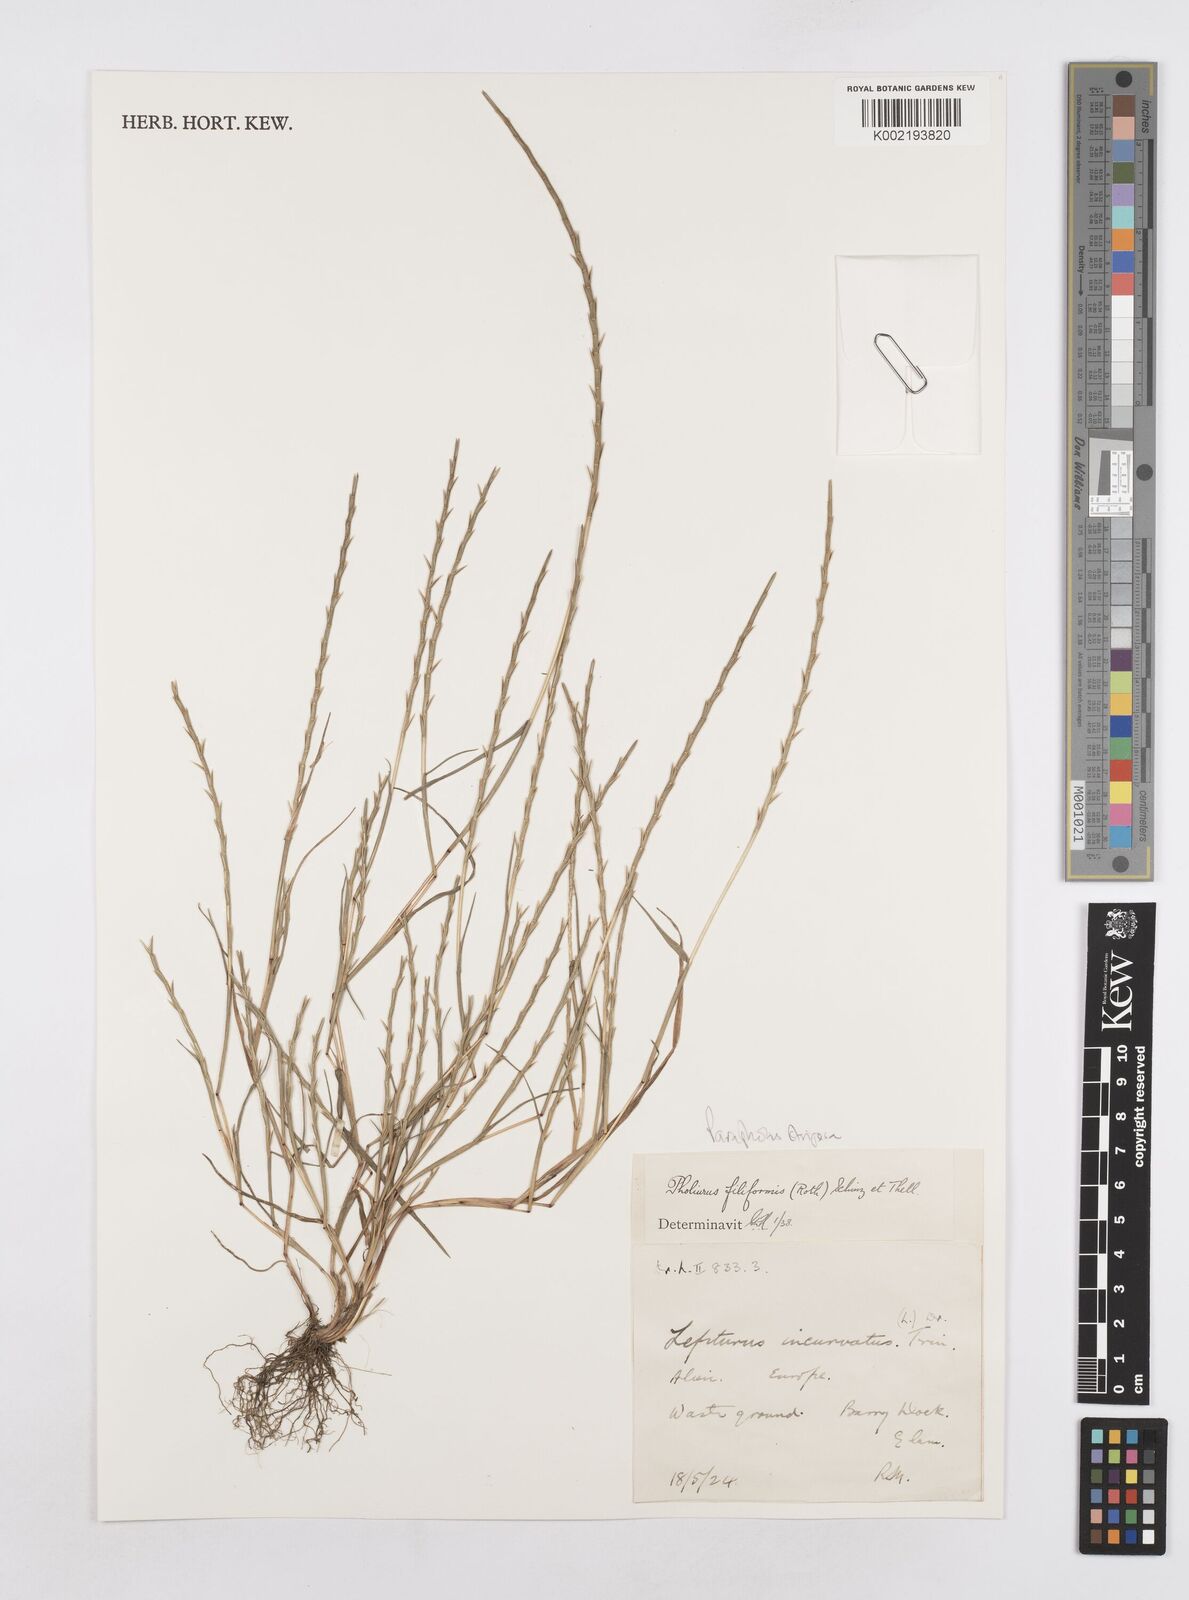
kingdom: Plantae
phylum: Tracheophyta
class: Liliopsida
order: Poales
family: Poaceae
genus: Parapholis
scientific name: Parapholis strigosa
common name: Hard-grass
